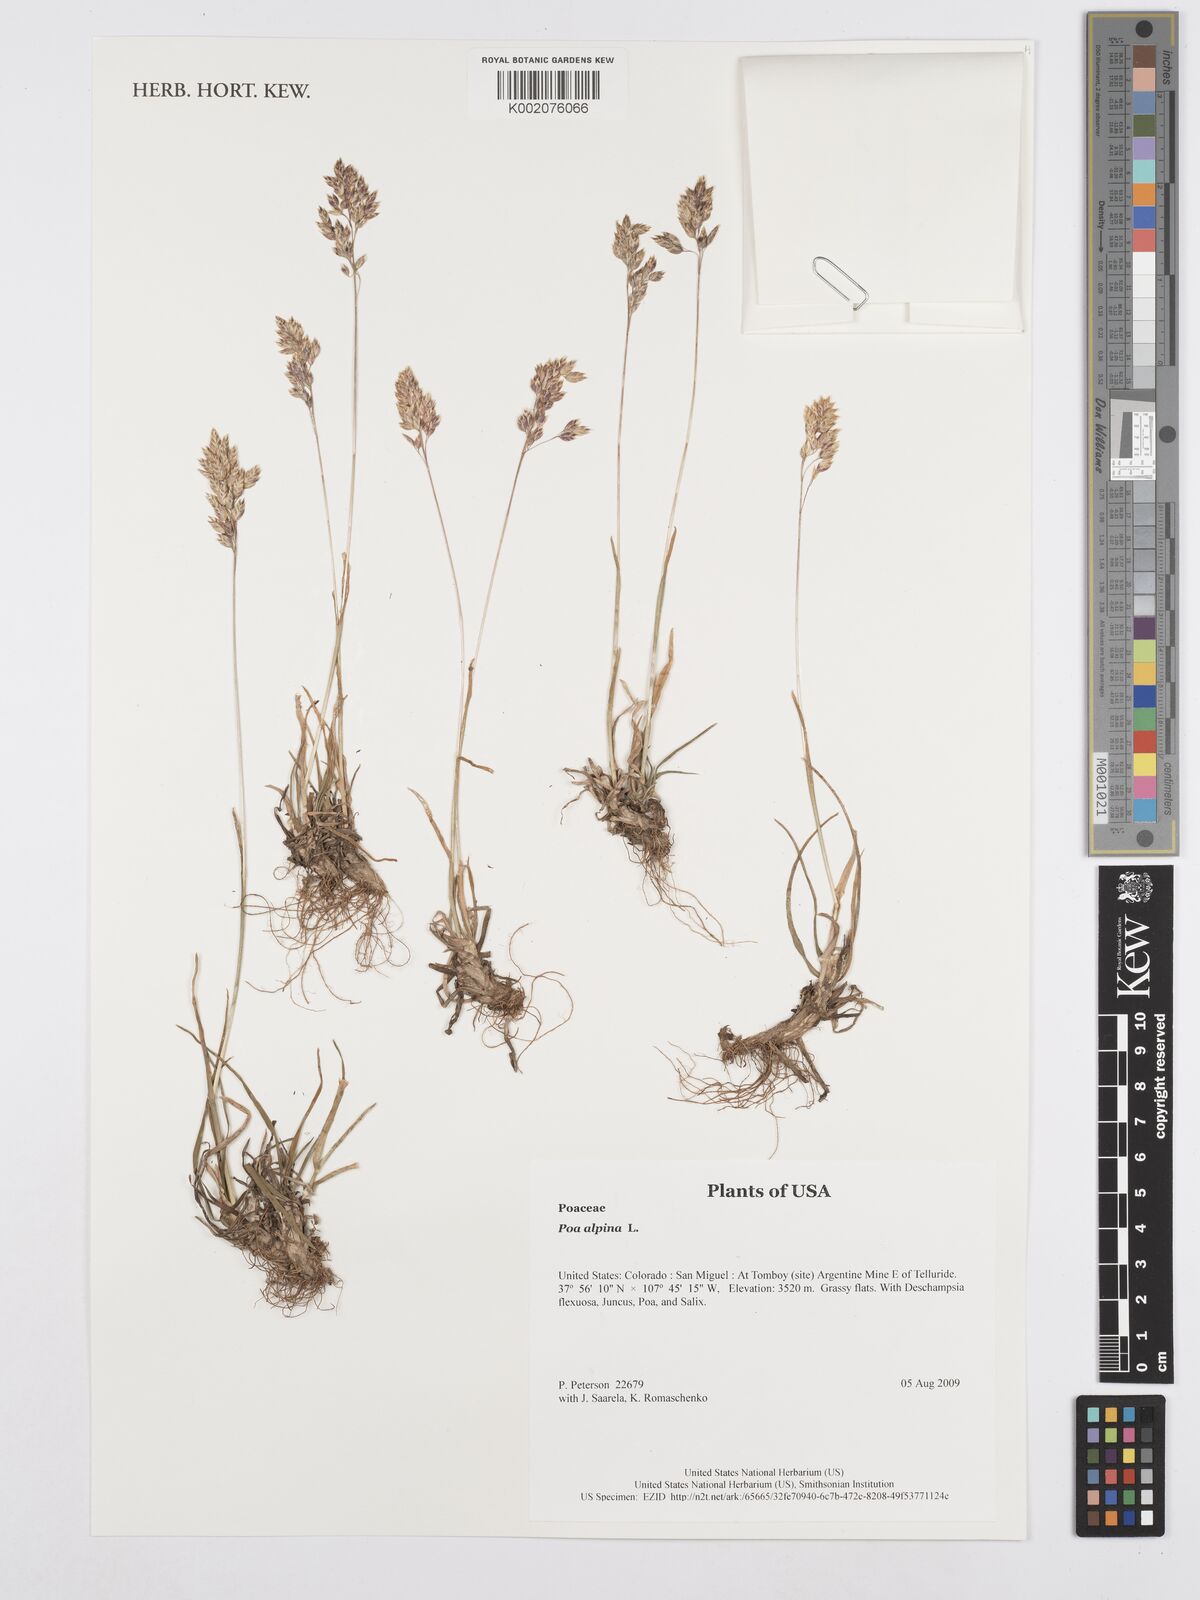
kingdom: Plantae
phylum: Tracheophyta
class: Liliopsida
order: Poales
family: Poaceae
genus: Poa
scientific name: Poa alpina
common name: Alpine bluegrass
